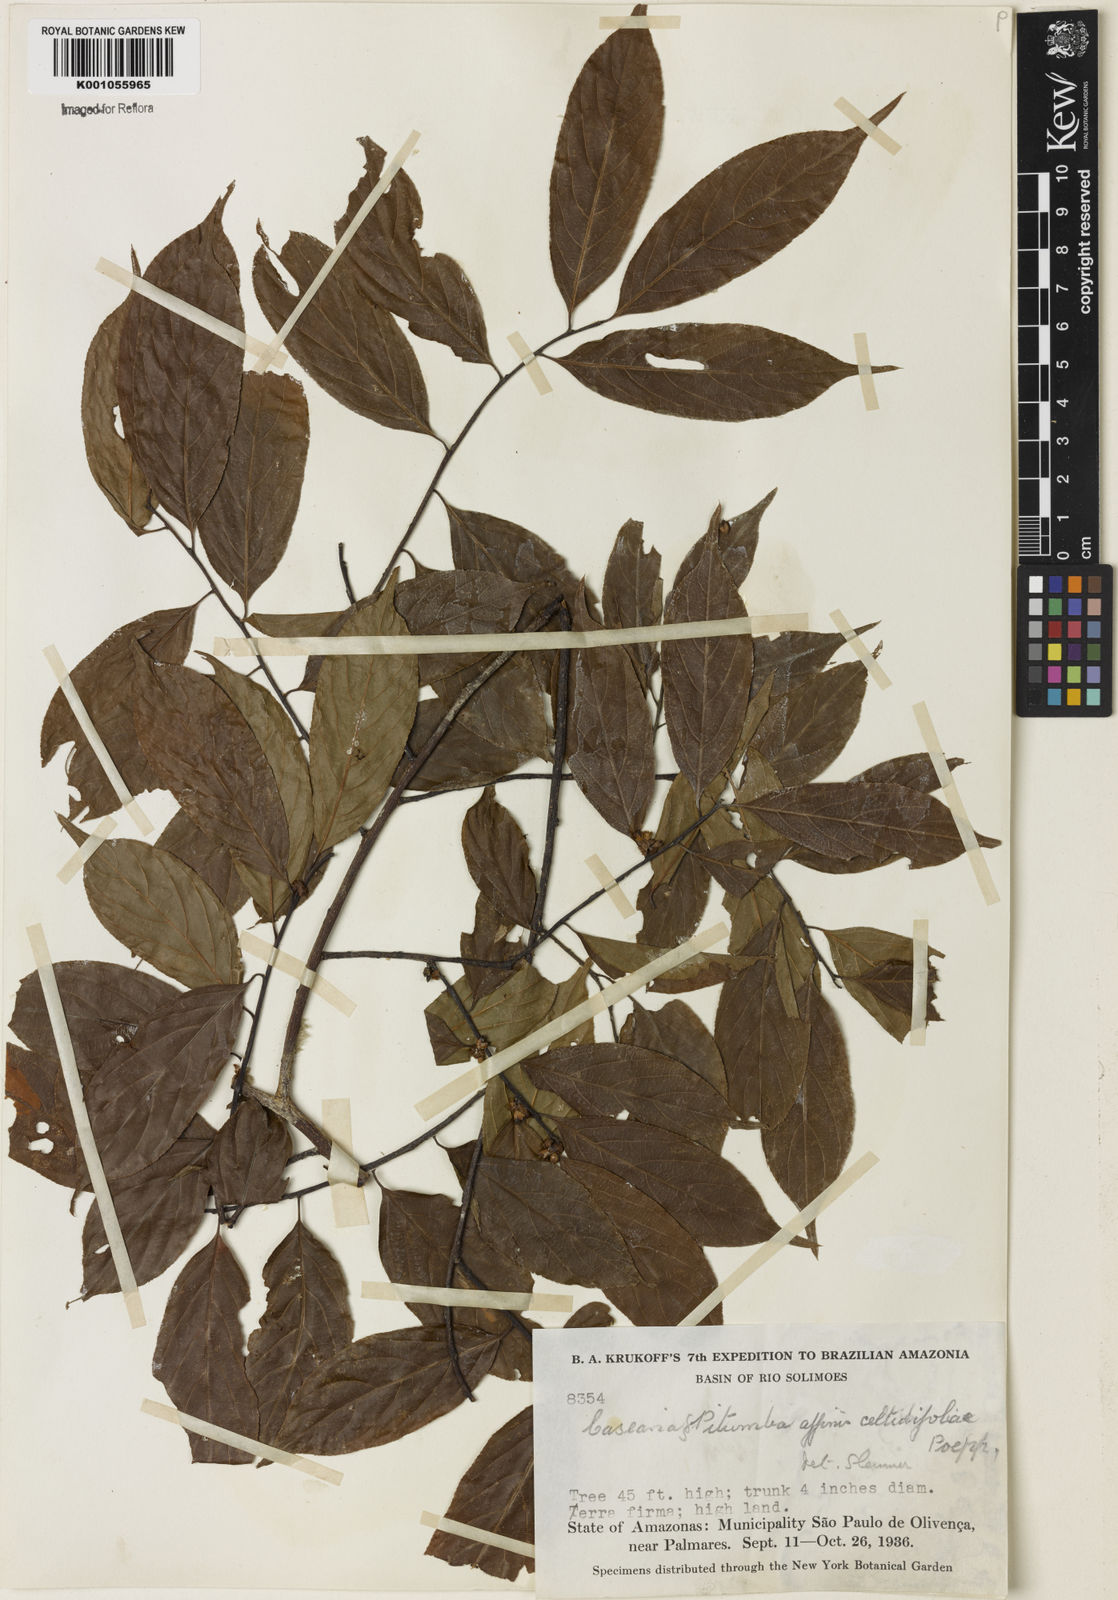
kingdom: Plantae
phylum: Tracheophyta
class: Magnoliopsida
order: Malpighiales
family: Salicaceae
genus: Casearia
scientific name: Casearia ulmifolia
